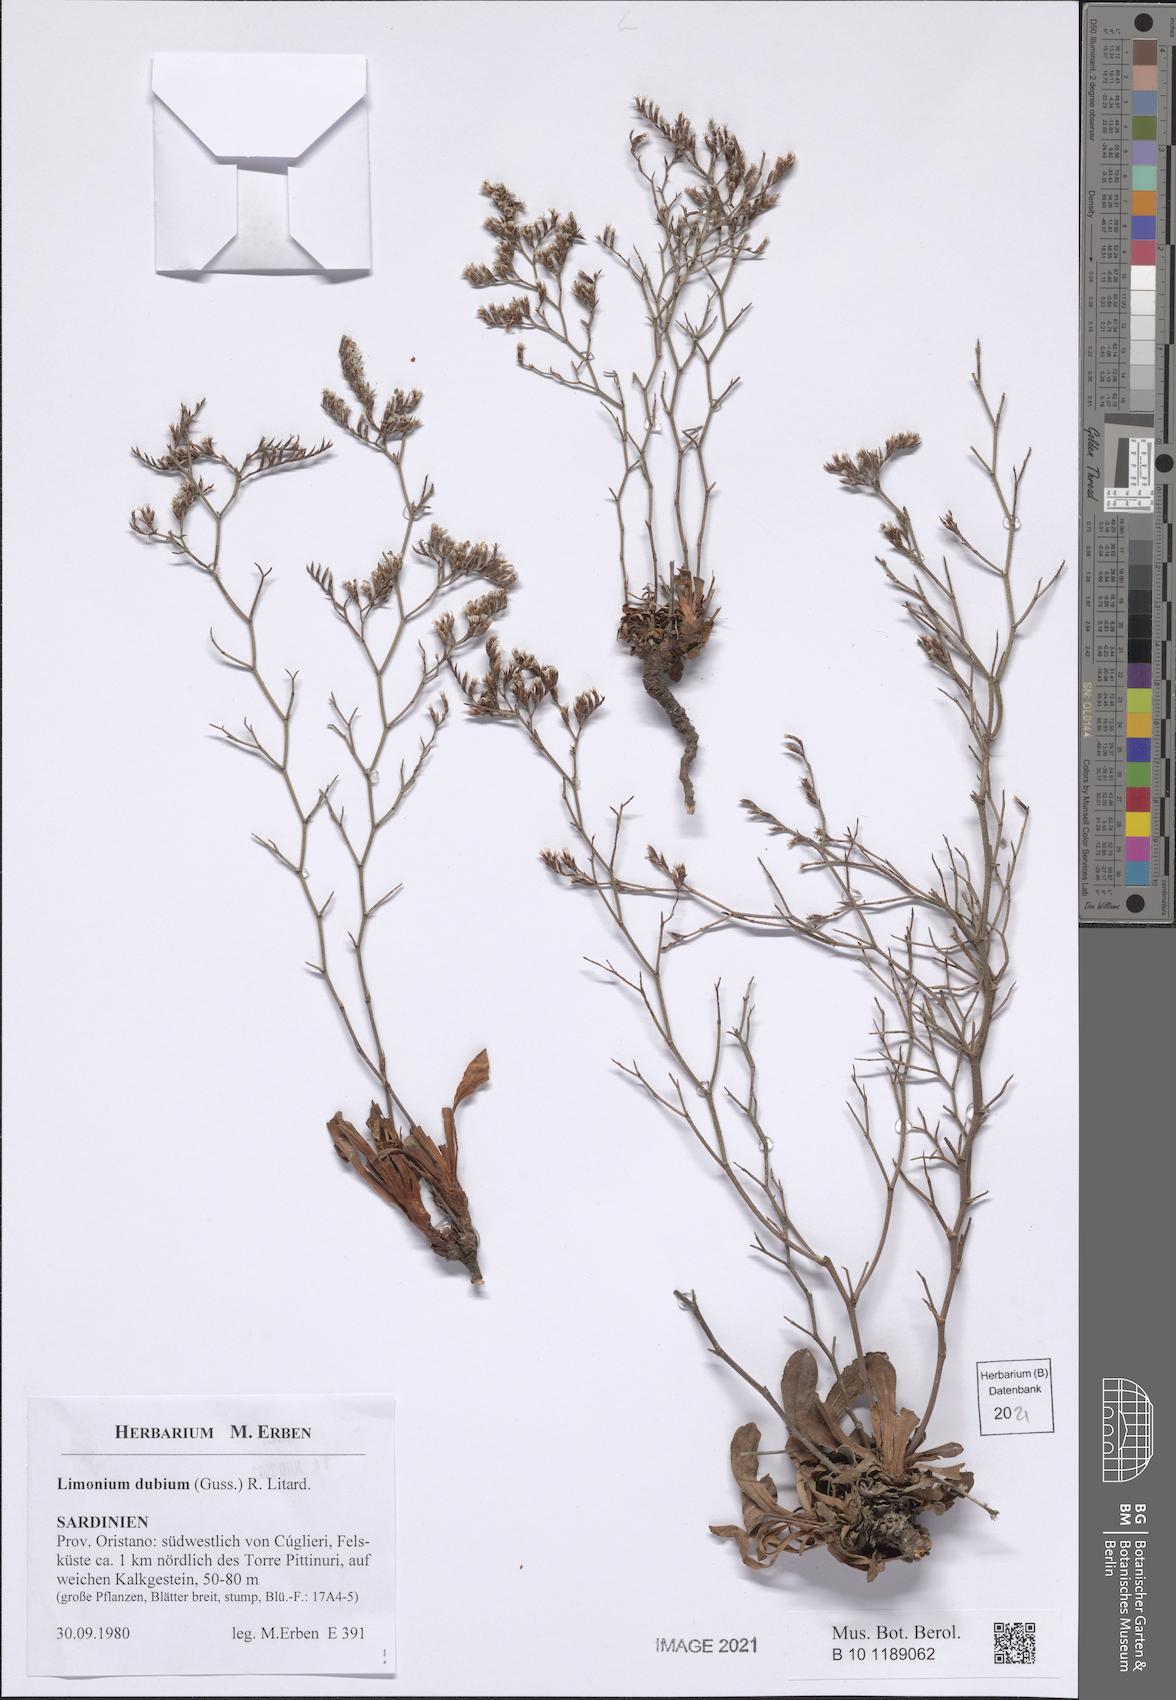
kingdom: Plantae
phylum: Tracheophyta
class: Magnoliopsida
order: Caryophyllales
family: Plumbaginaceae
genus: Limonium
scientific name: Limonium dubium
